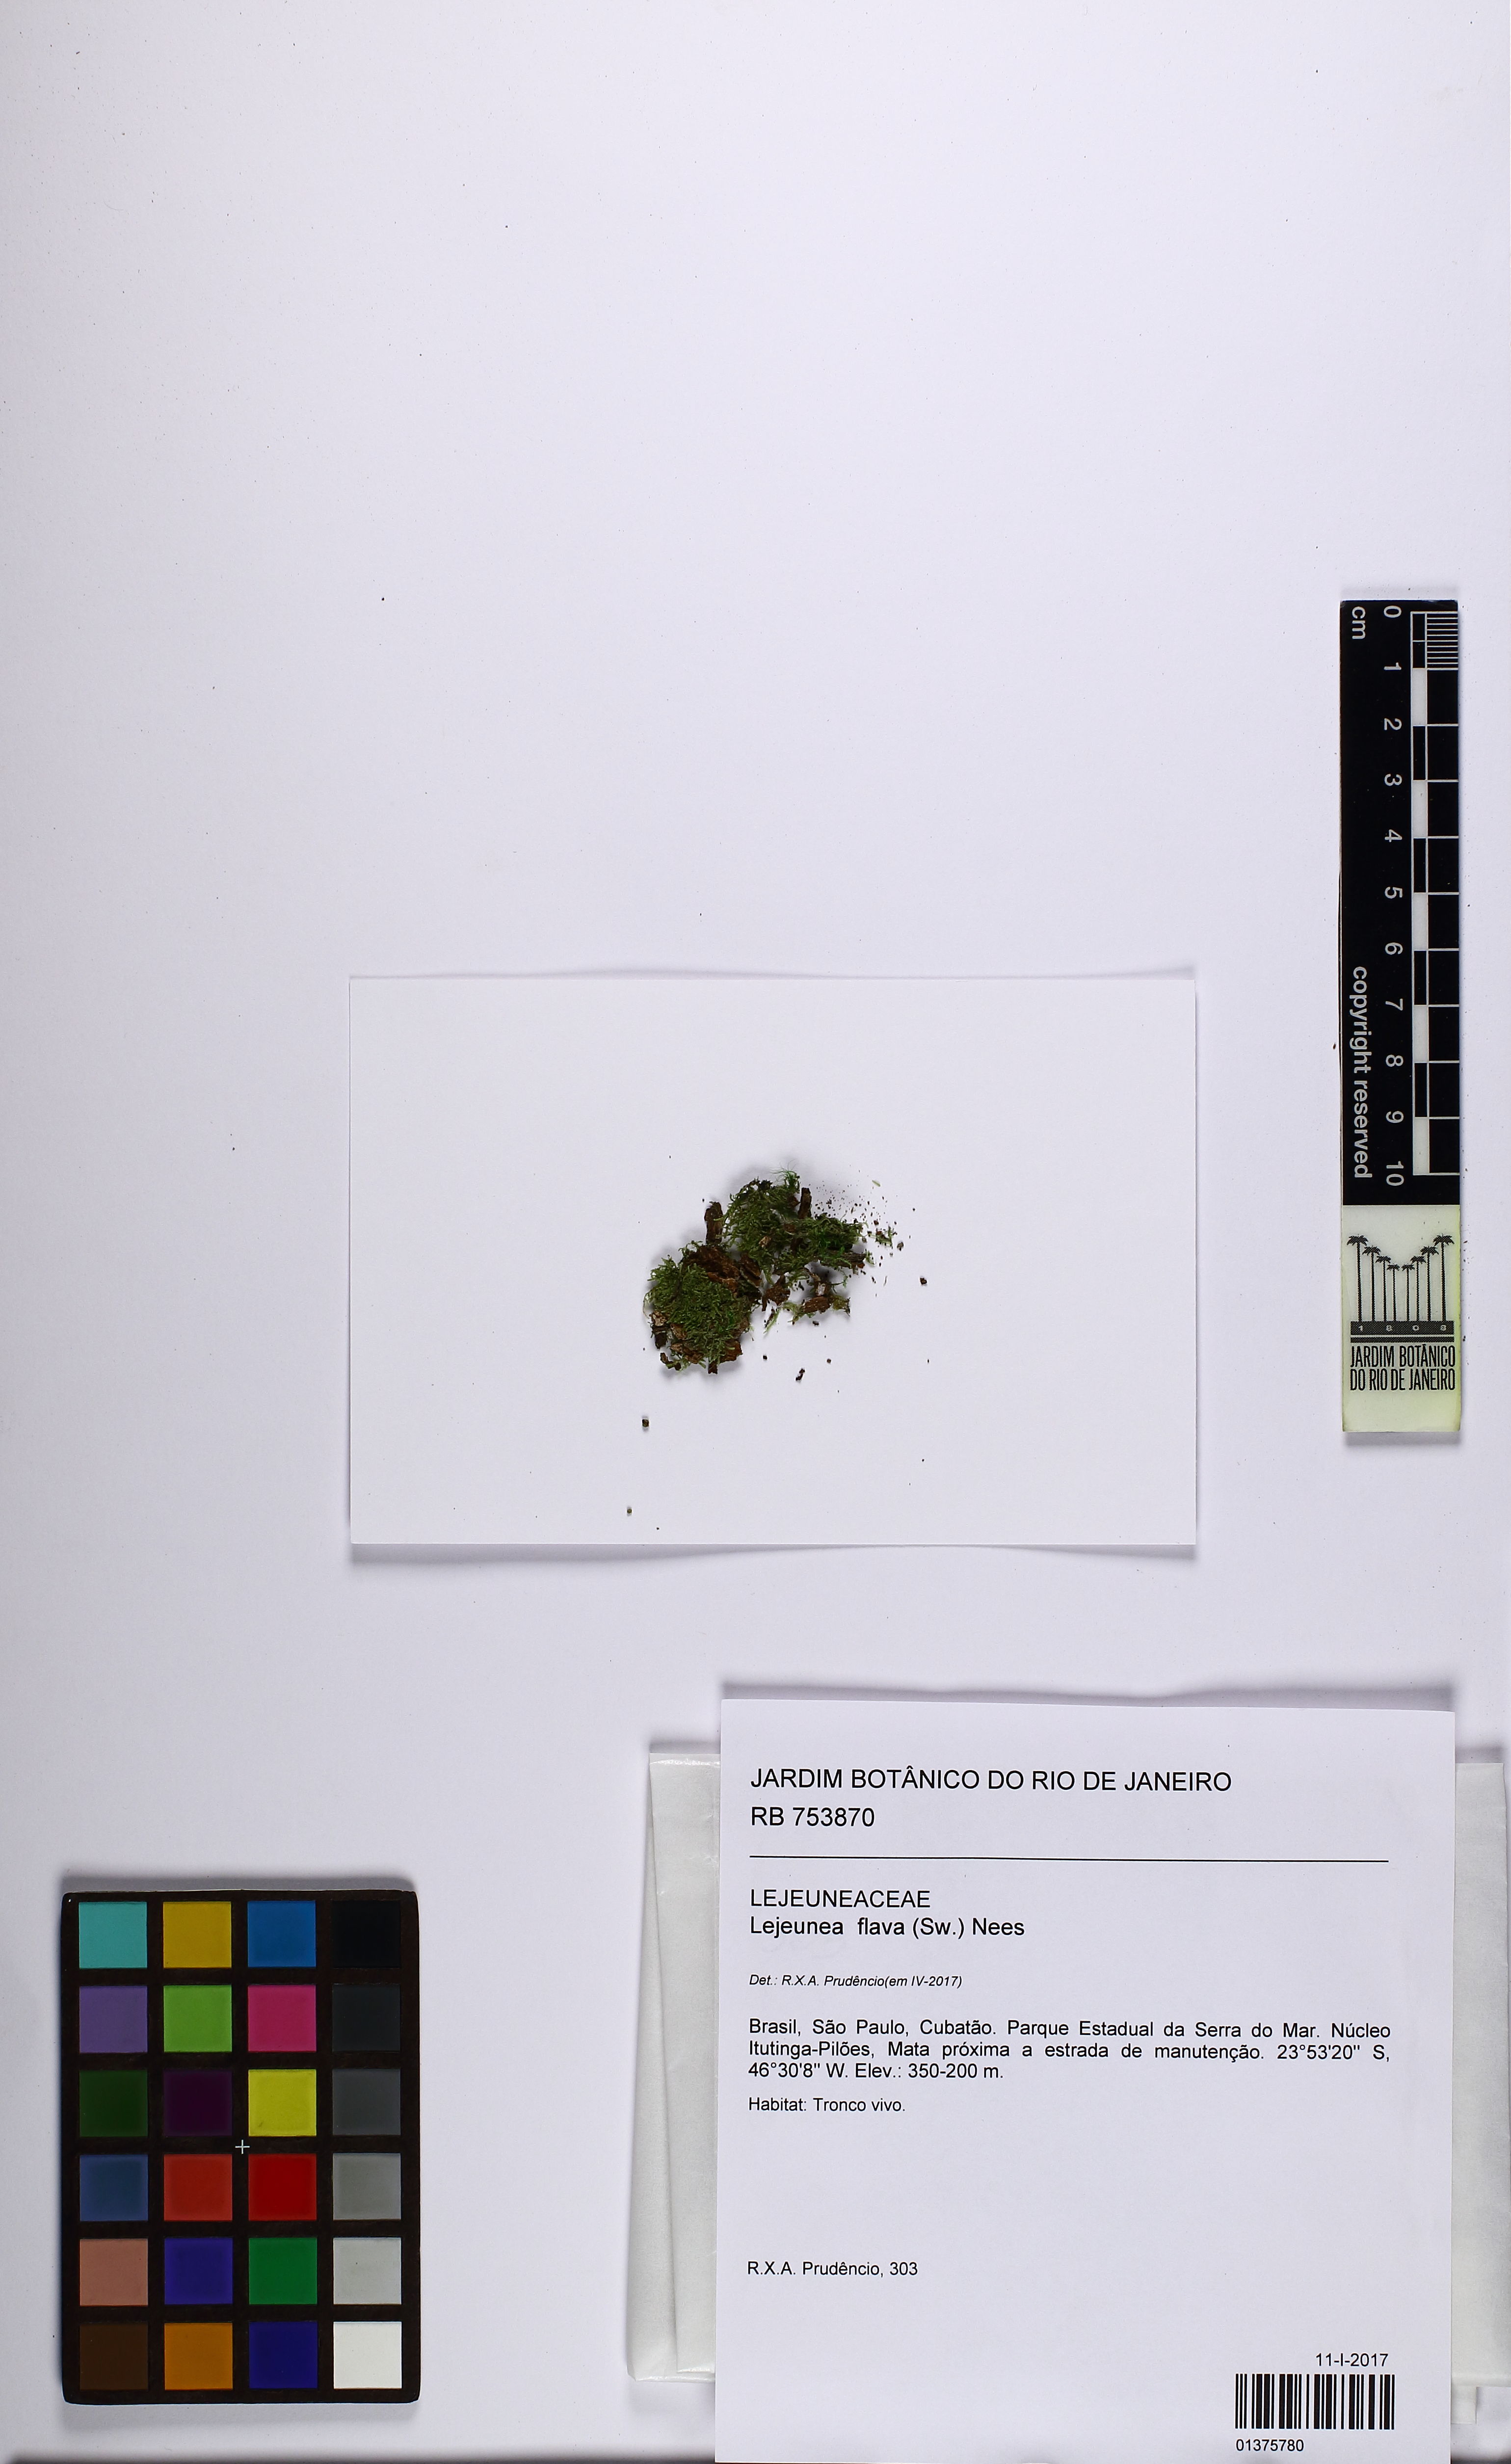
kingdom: Plantae
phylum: Marchantiophyta
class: Jungermanniopsida
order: Porellales
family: Lejeuneaceae
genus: Lejeunea
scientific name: Lejeunea flava
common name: Yellow pouncewort
